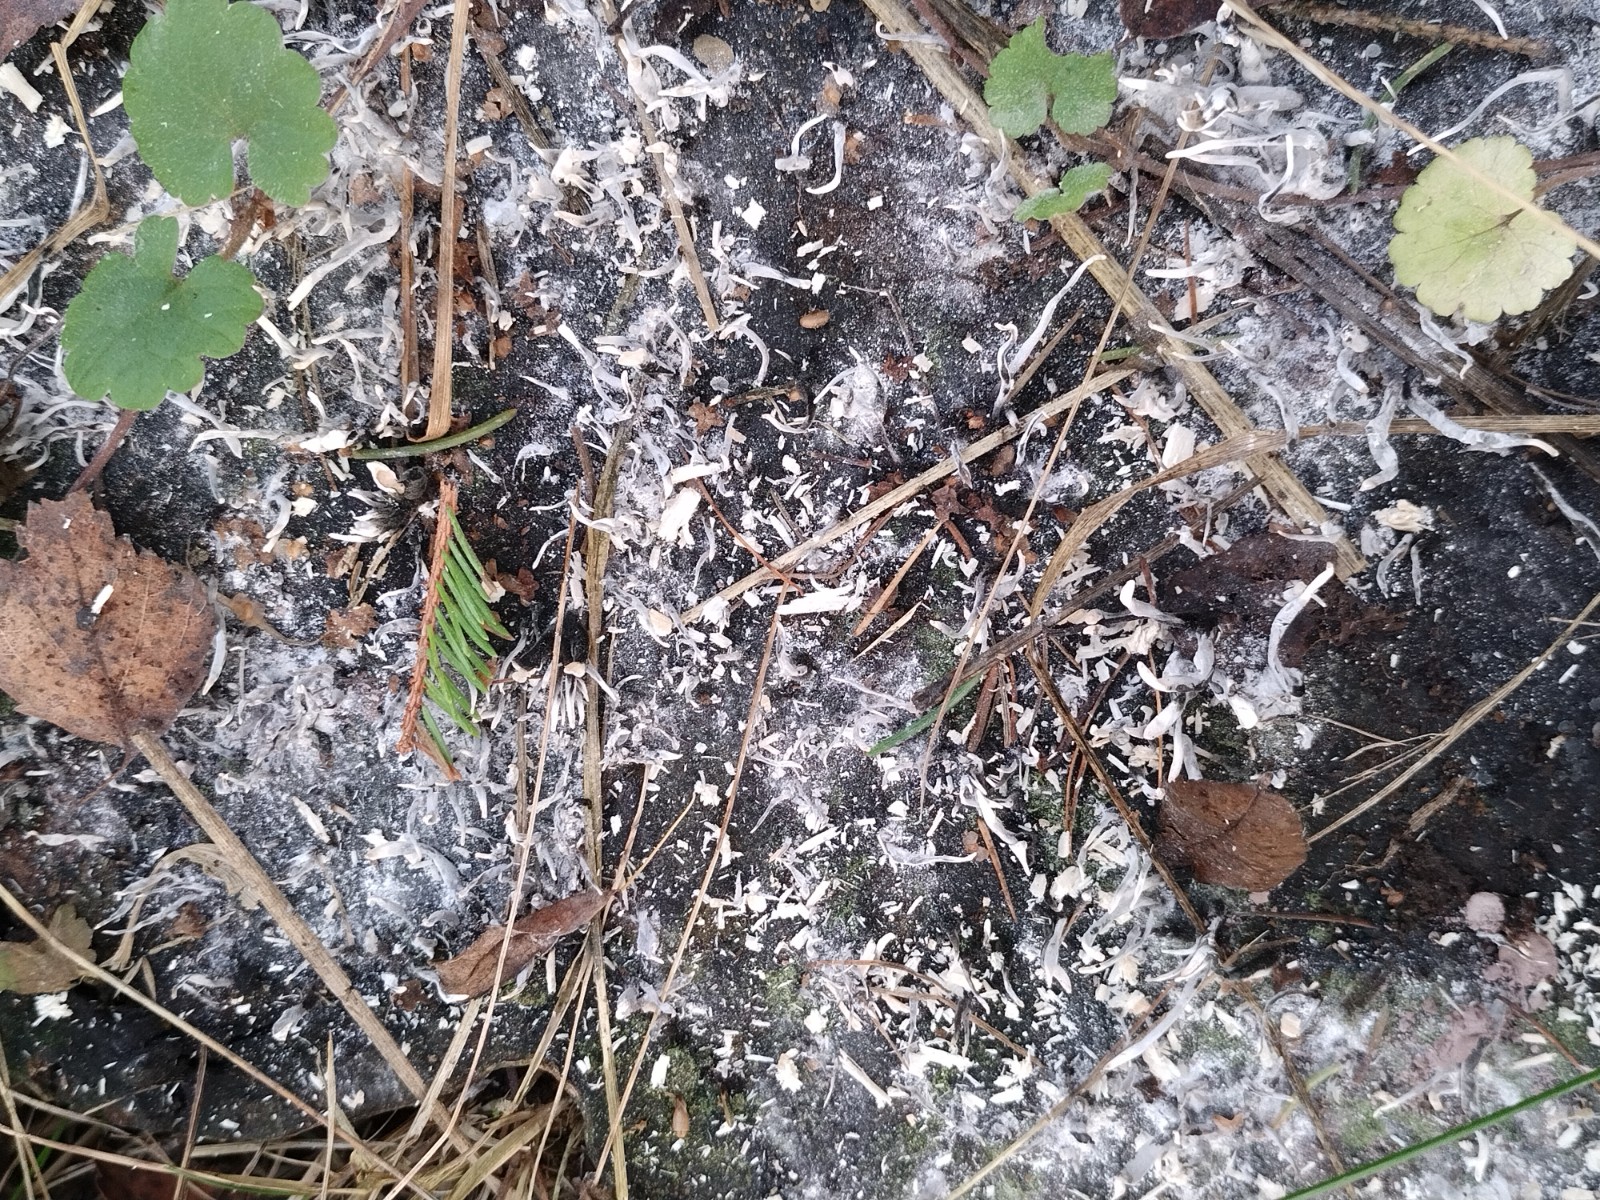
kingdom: Fungi
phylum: Ascomycota
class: Sordariomycetes
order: Xylariales
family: Xylariaceae
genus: Xylaria
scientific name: Xylaria hypoxylon
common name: grenet stødsvamp
